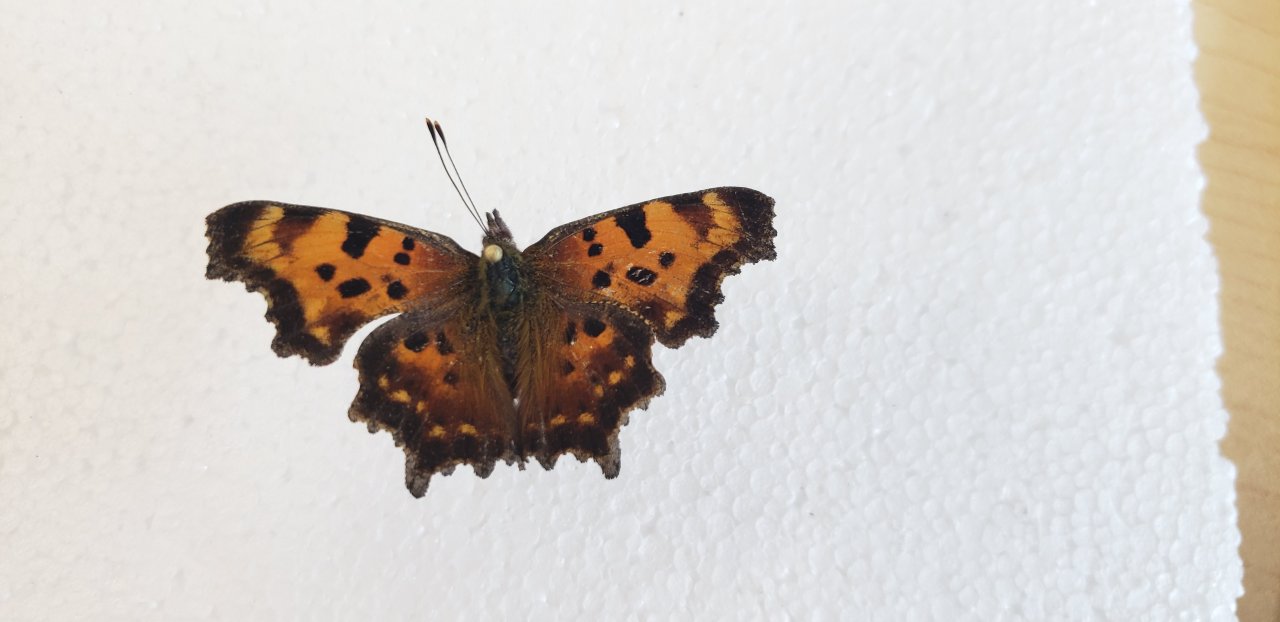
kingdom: Animalia
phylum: Arthropoda
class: Insecta
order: Lepidoptera
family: Nymphalidae
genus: Polygonia
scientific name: Polygonia faunus
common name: Green Comma
